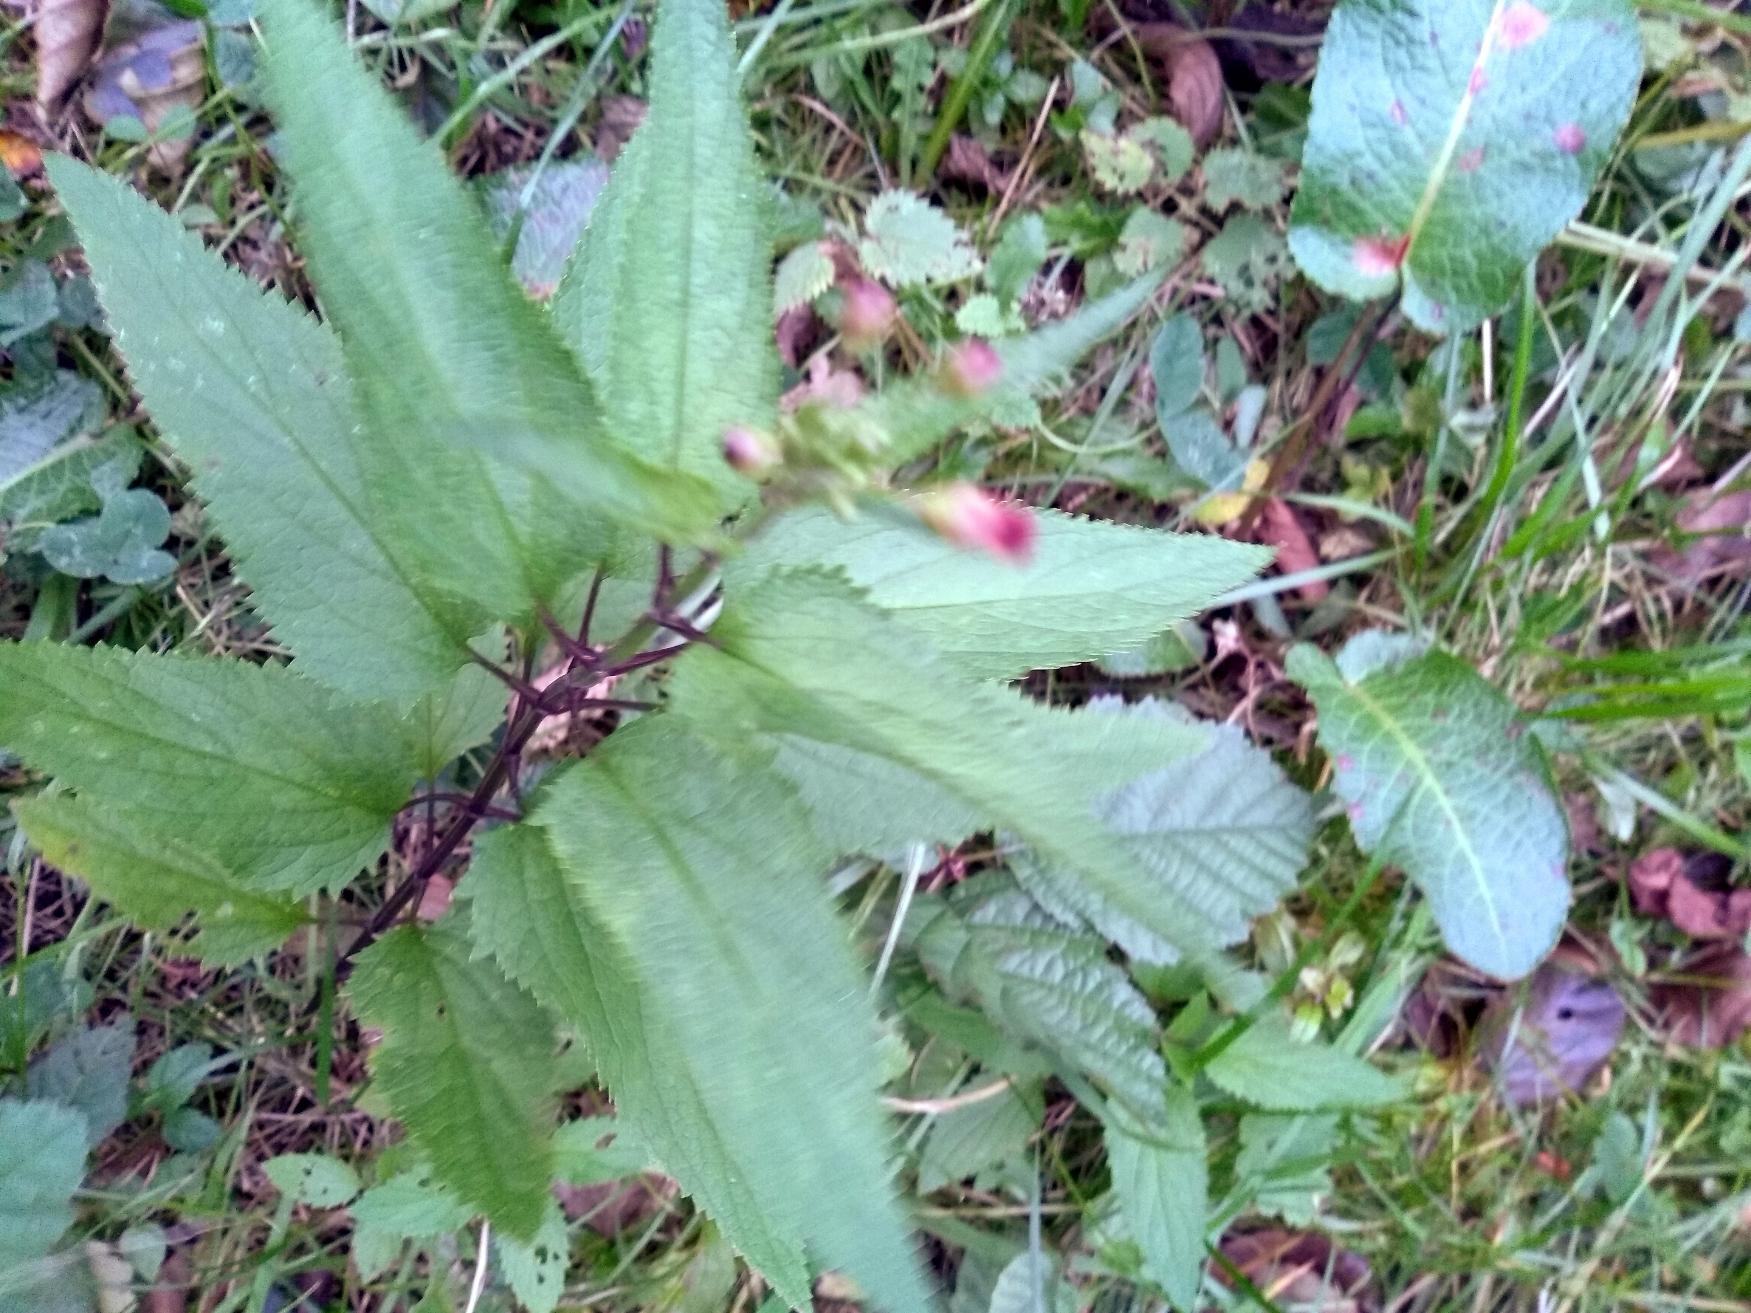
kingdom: Plantae
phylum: Tracheophyta
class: Magnoliopsida
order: Lamiales
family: Scrophulariaceae
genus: Scrophularia
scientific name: Scrophularia nodosa
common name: Knoldet brunrod
